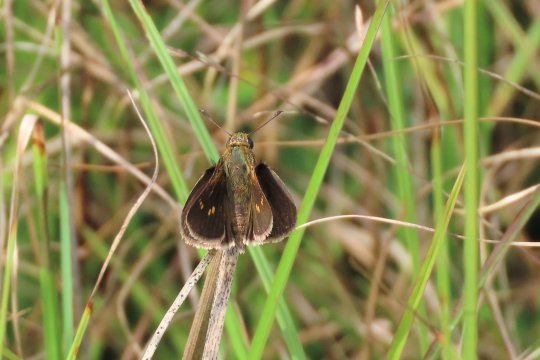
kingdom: Animalia
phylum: Arthropoda
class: Insecta
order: Lepidoptera
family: Hesperiidae
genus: Polites
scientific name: Polites themistocles
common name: Tawny-edged Skipper
